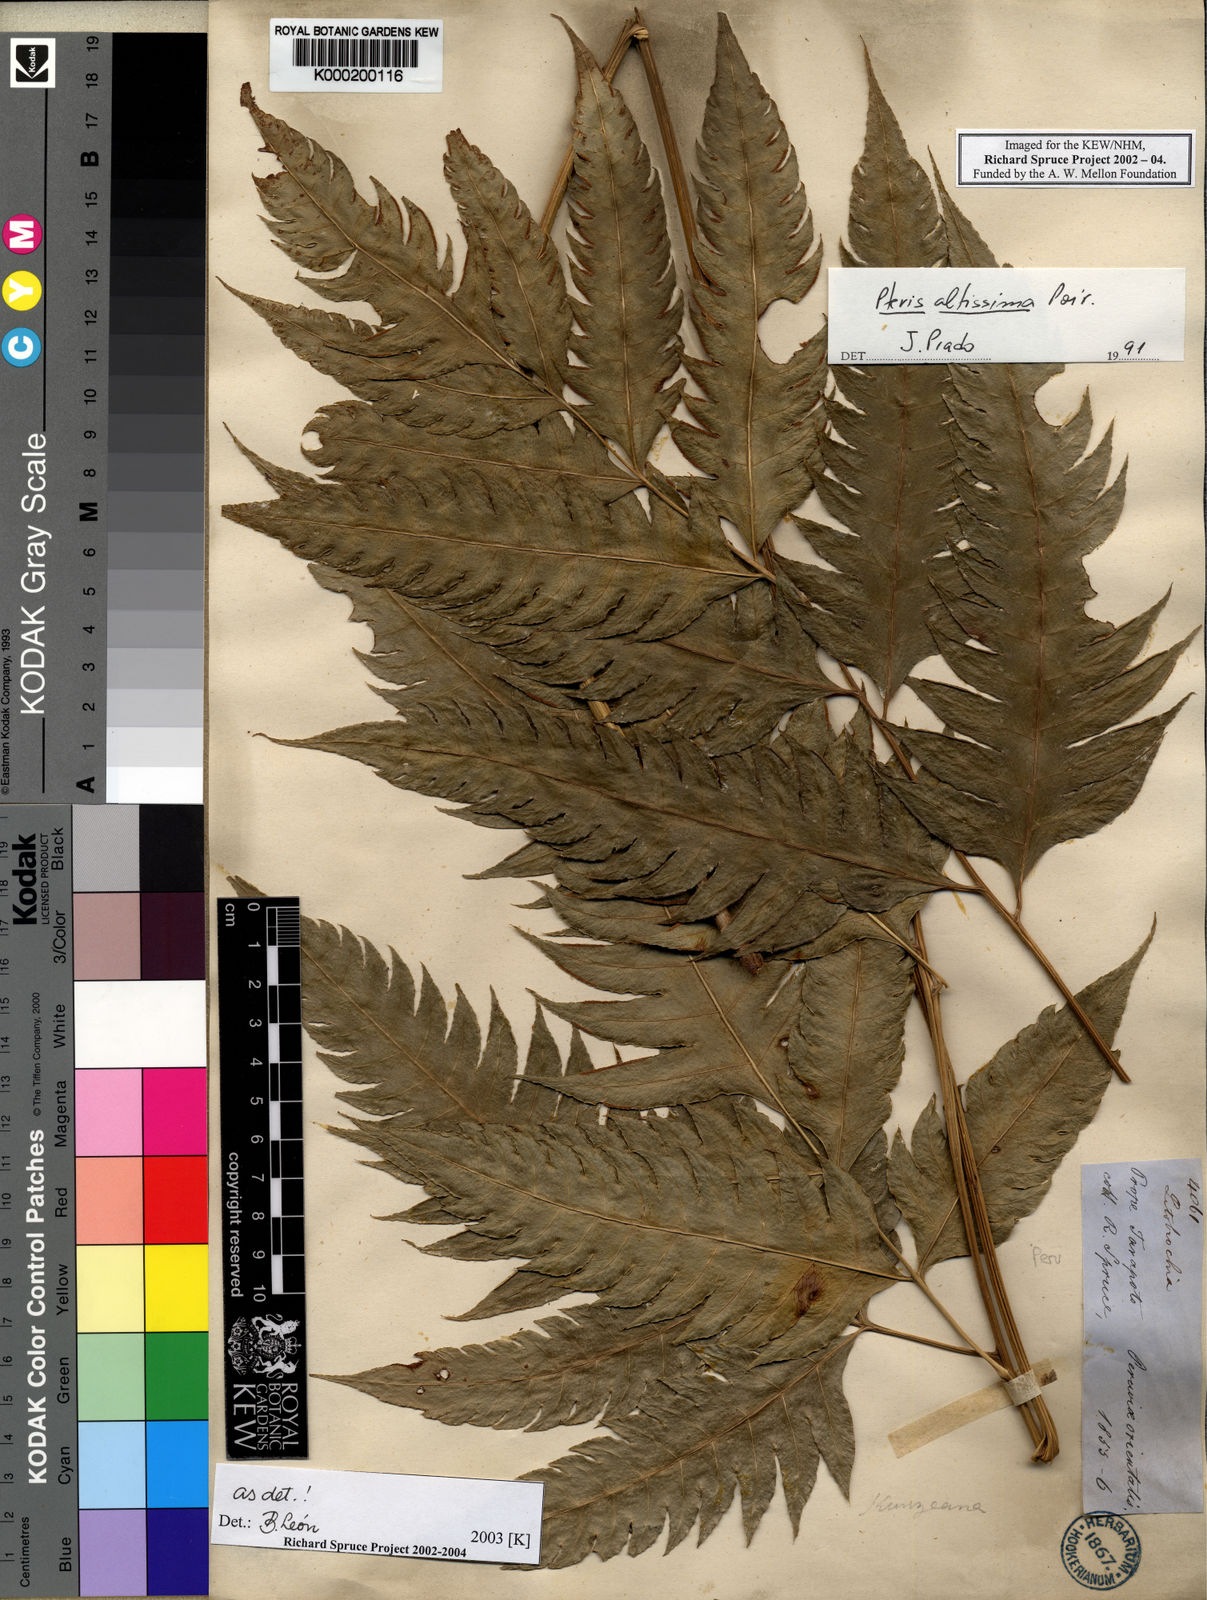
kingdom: Plantae
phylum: Tracheophyta
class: Polypodiopsida
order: Polypodiales
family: Pteridaceae
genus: Pteris
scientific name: Pteris altissima
